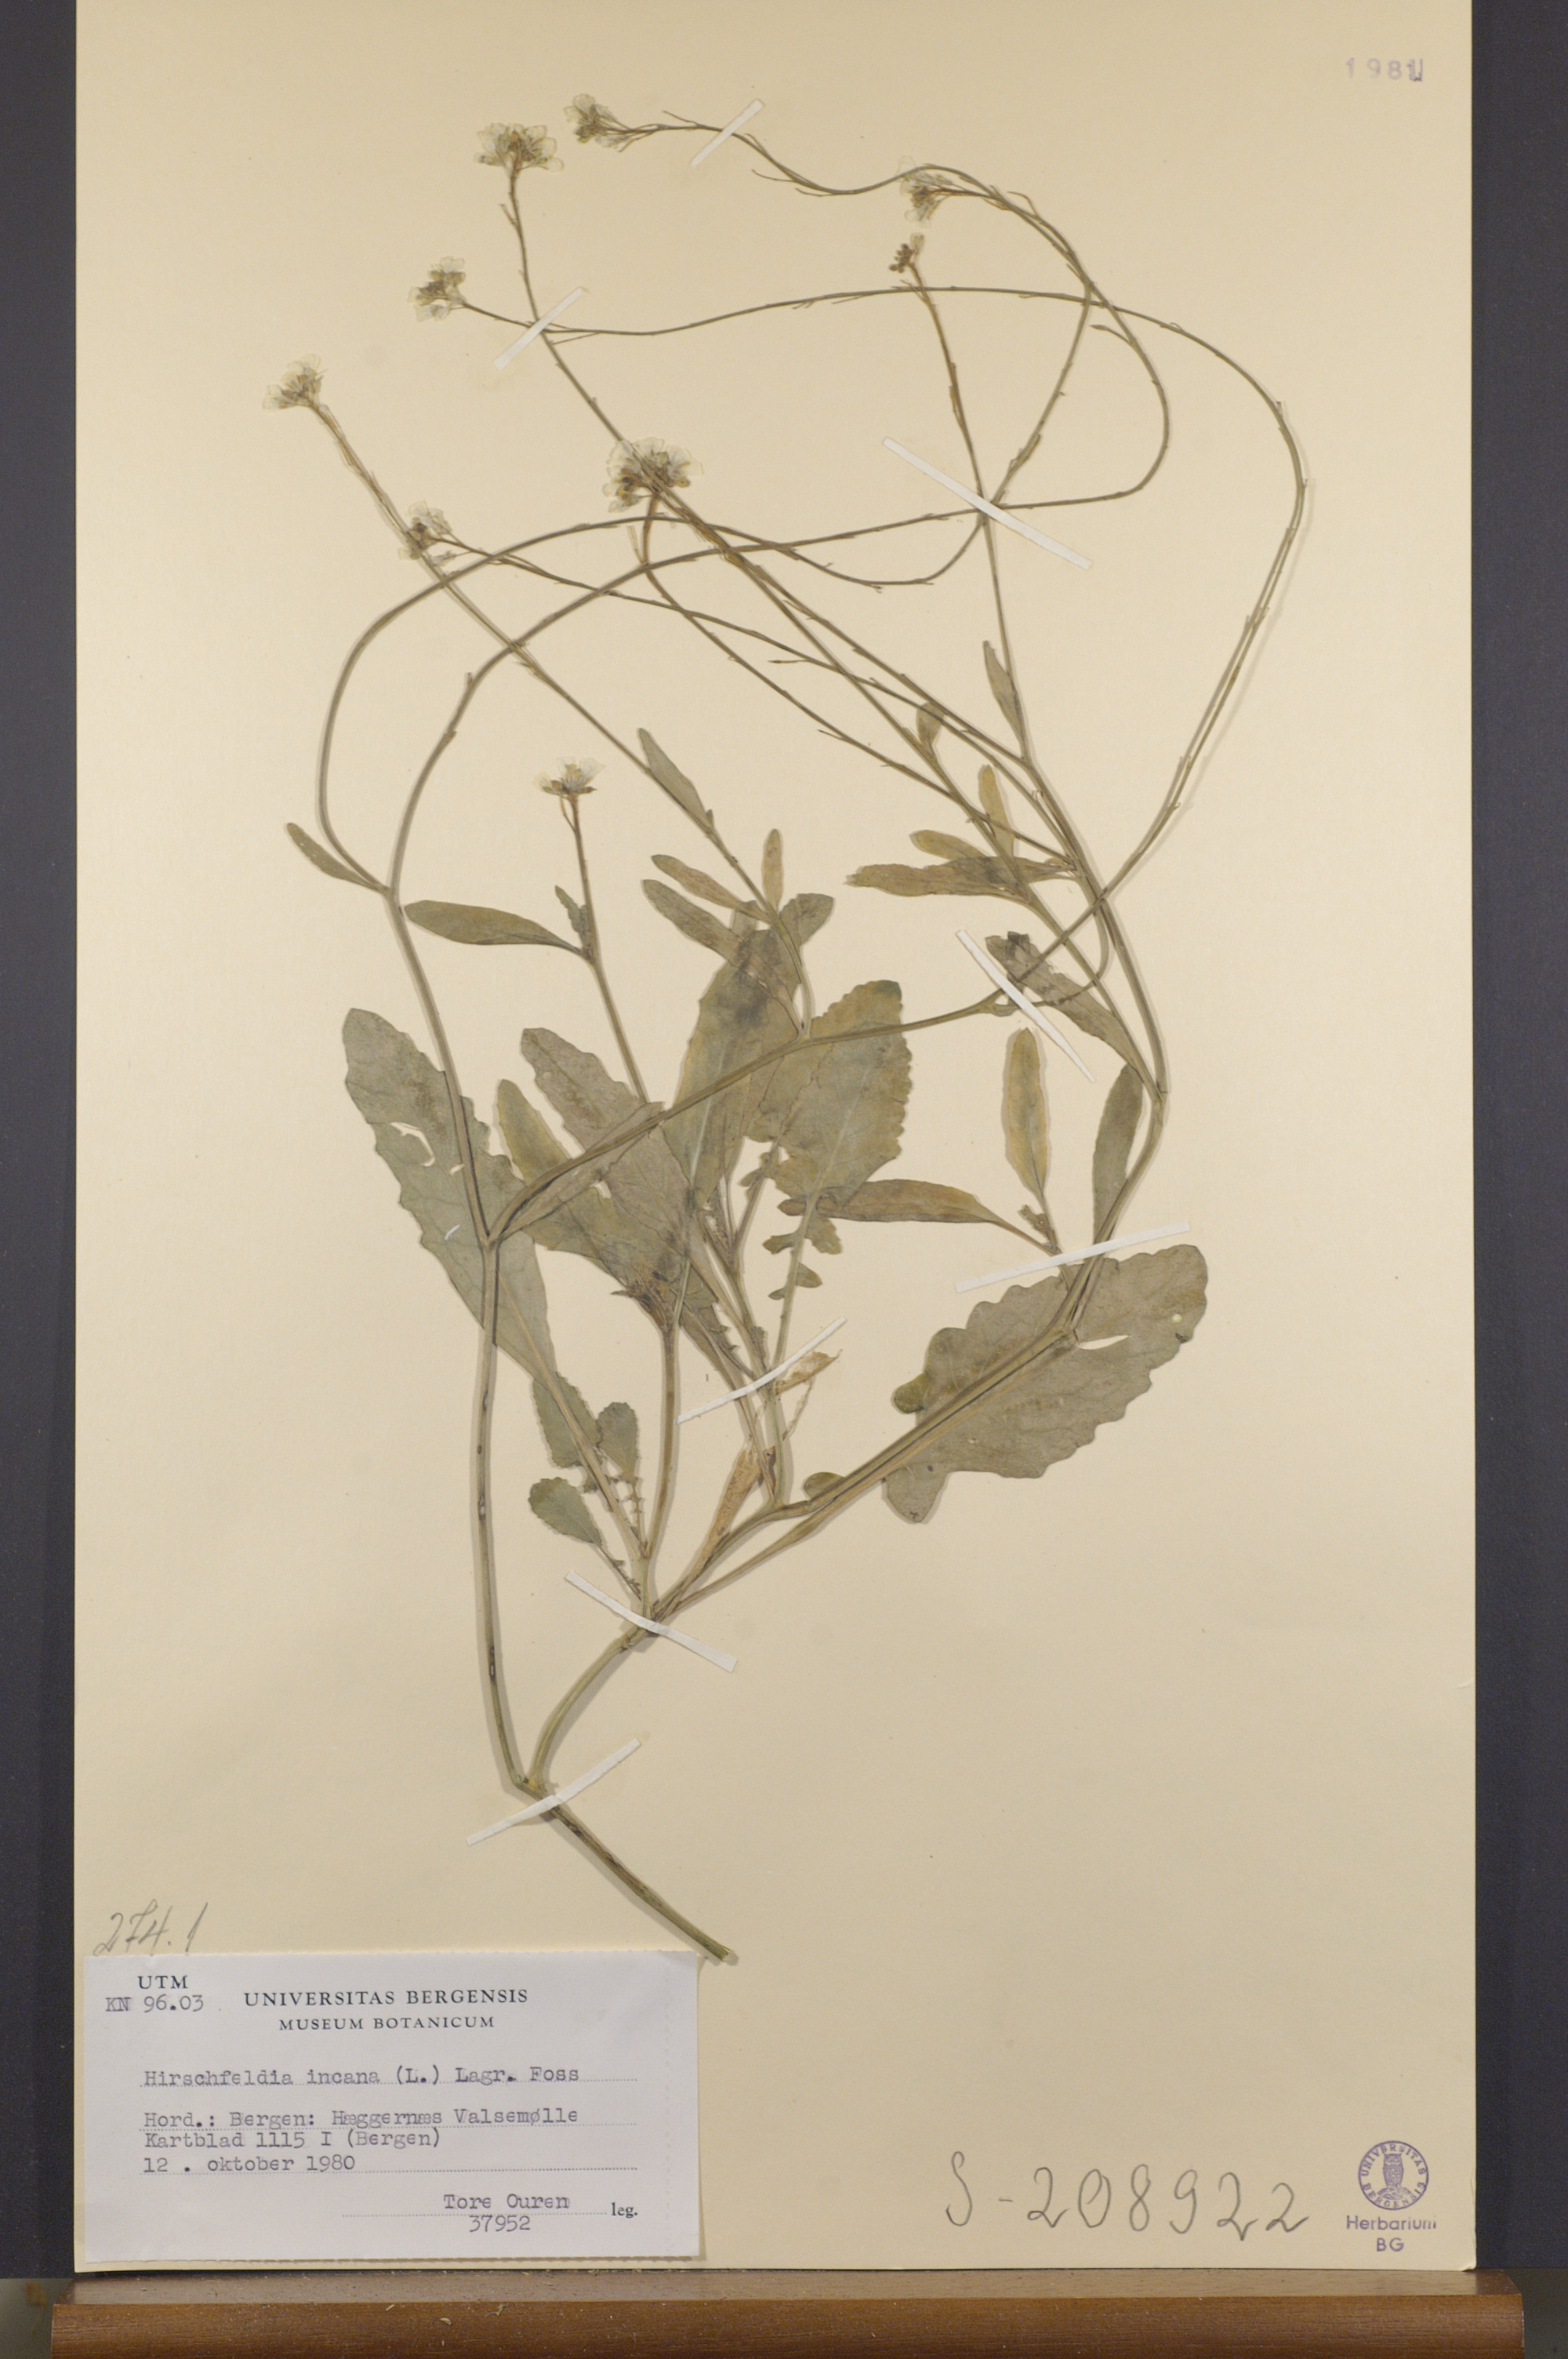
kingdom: Plantae
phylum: Tracheophyta
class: Magnoliopsida
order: Brassicales
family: Brassicaceae
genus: Hirschfeldia
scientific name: Hirschfeldia incana
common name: Hoary mustard
